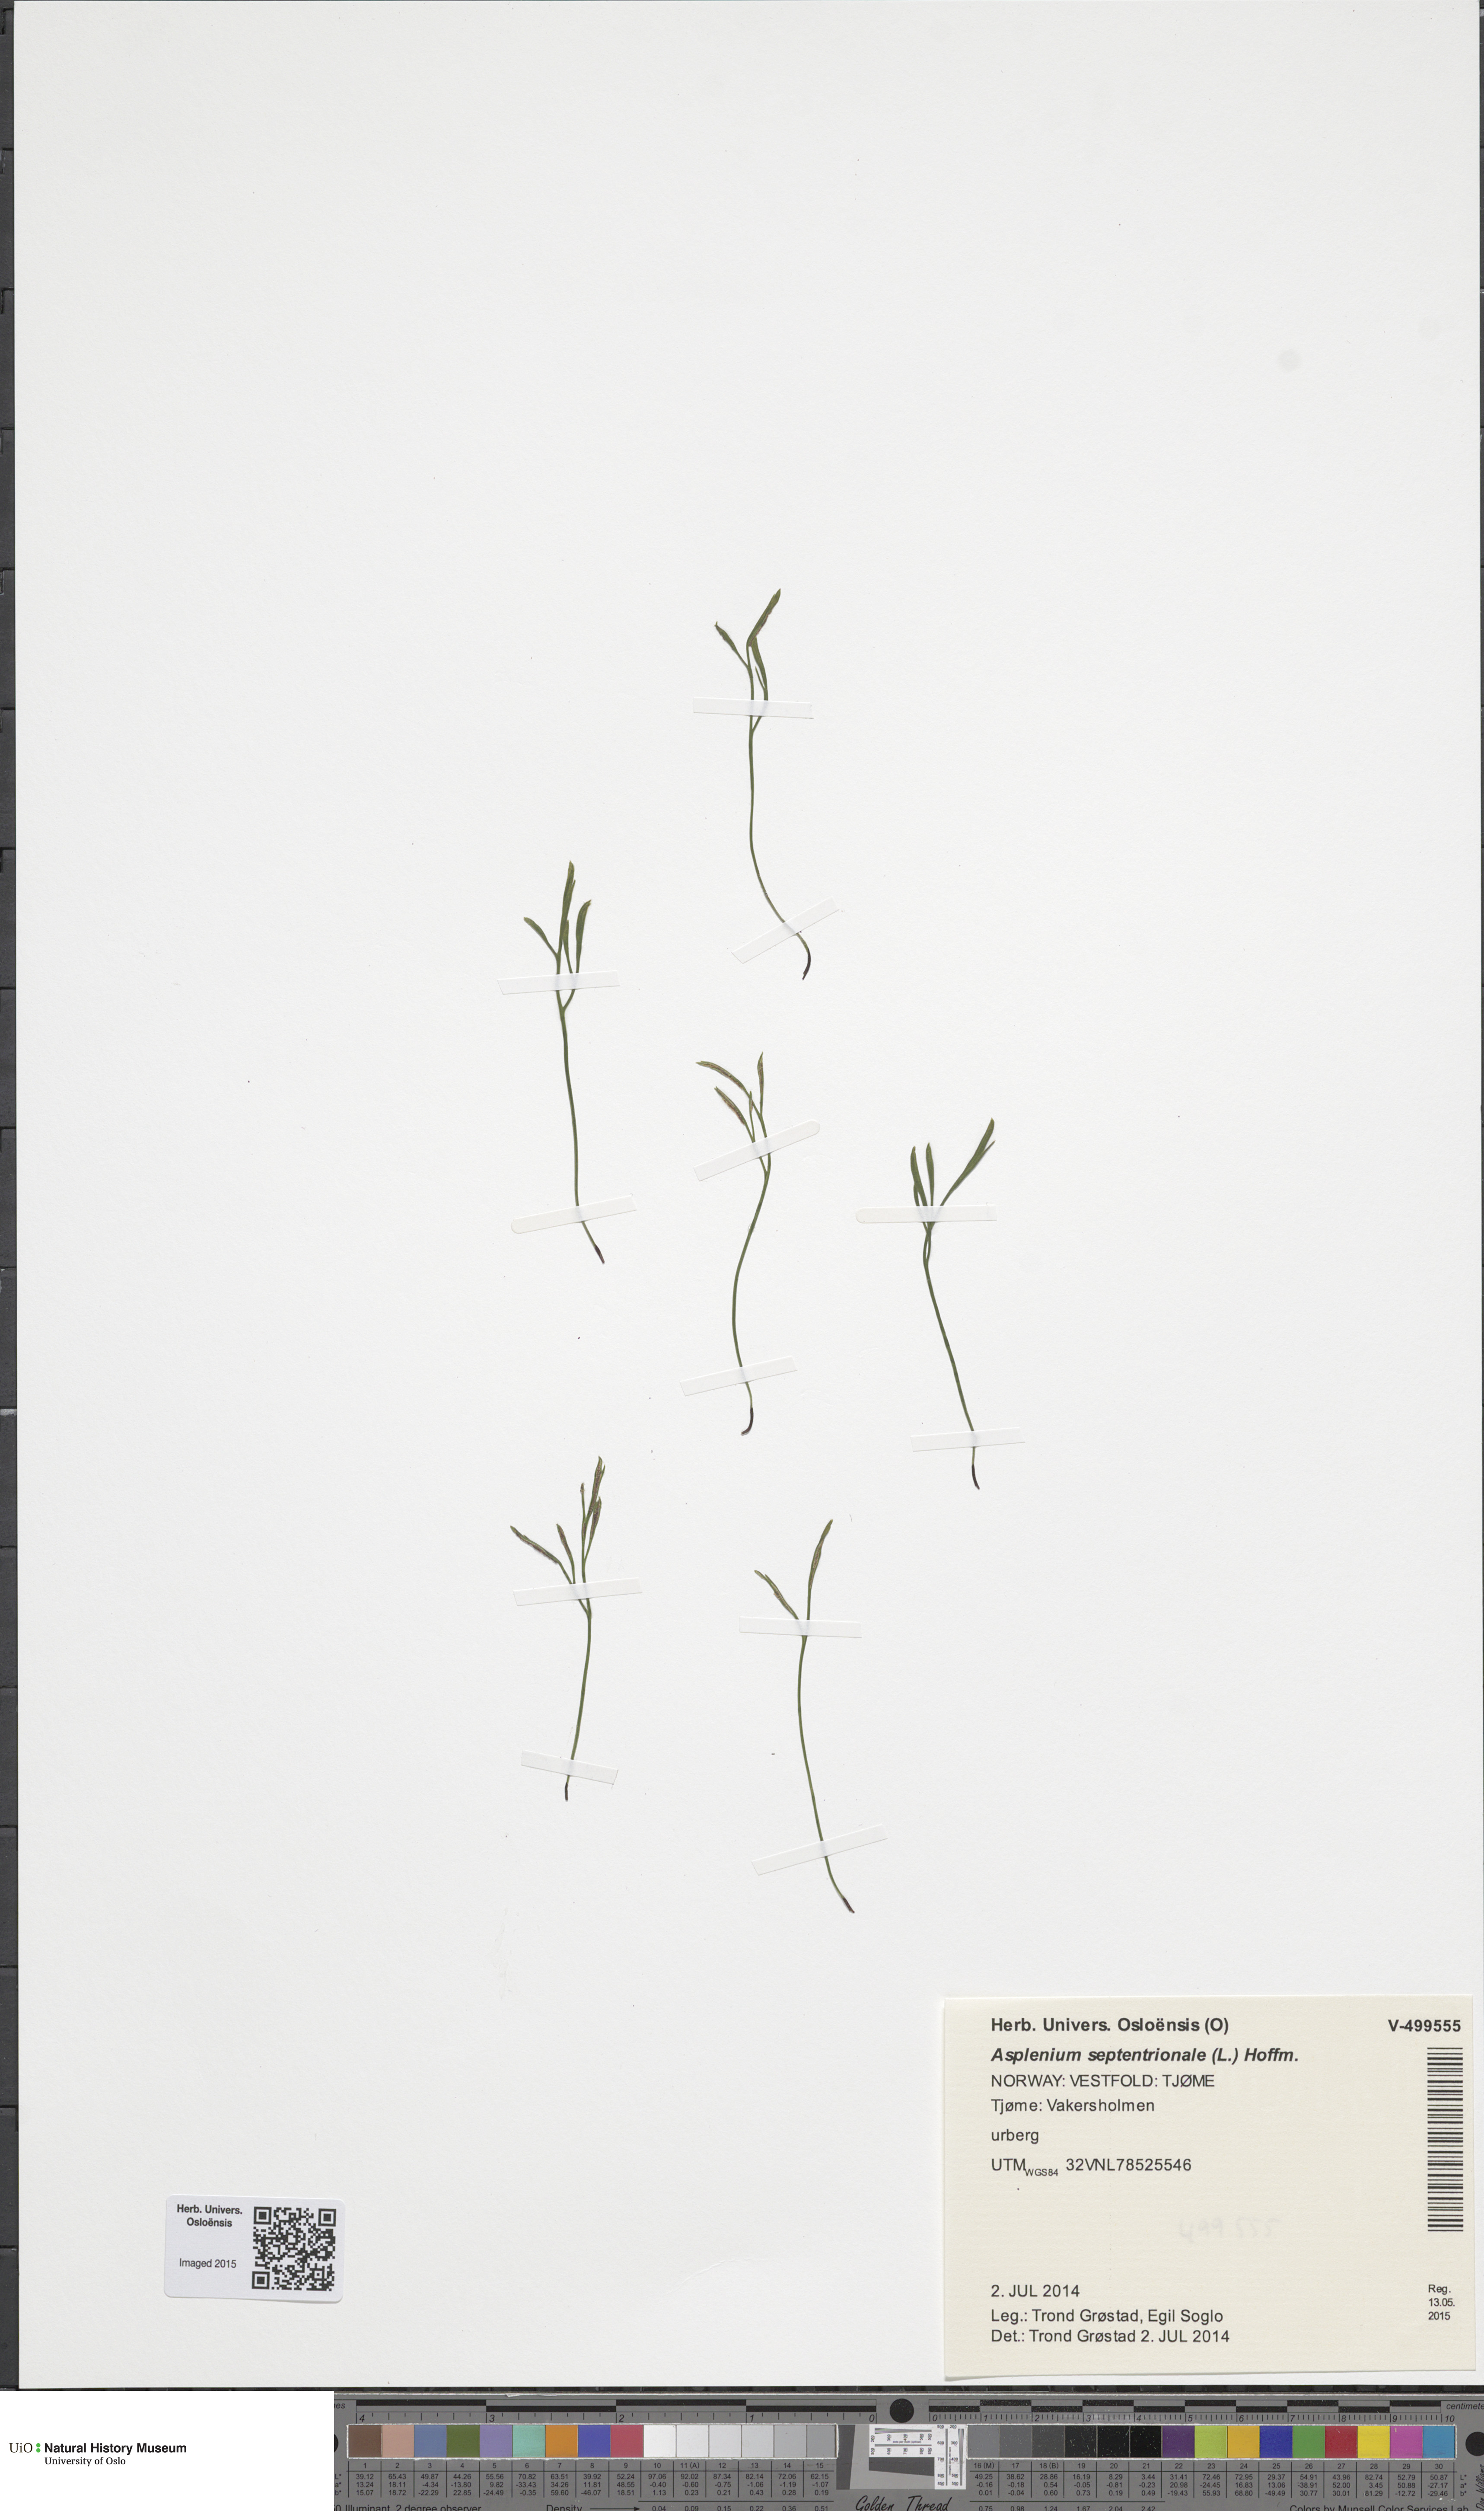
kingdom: Plantae
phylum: Tracheophyta
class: Polypodiopsida
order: Polypodiales
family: Aspleniaceae
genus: Asplenium
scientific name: Asplenium septentrionale
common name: Forked spleenwort
